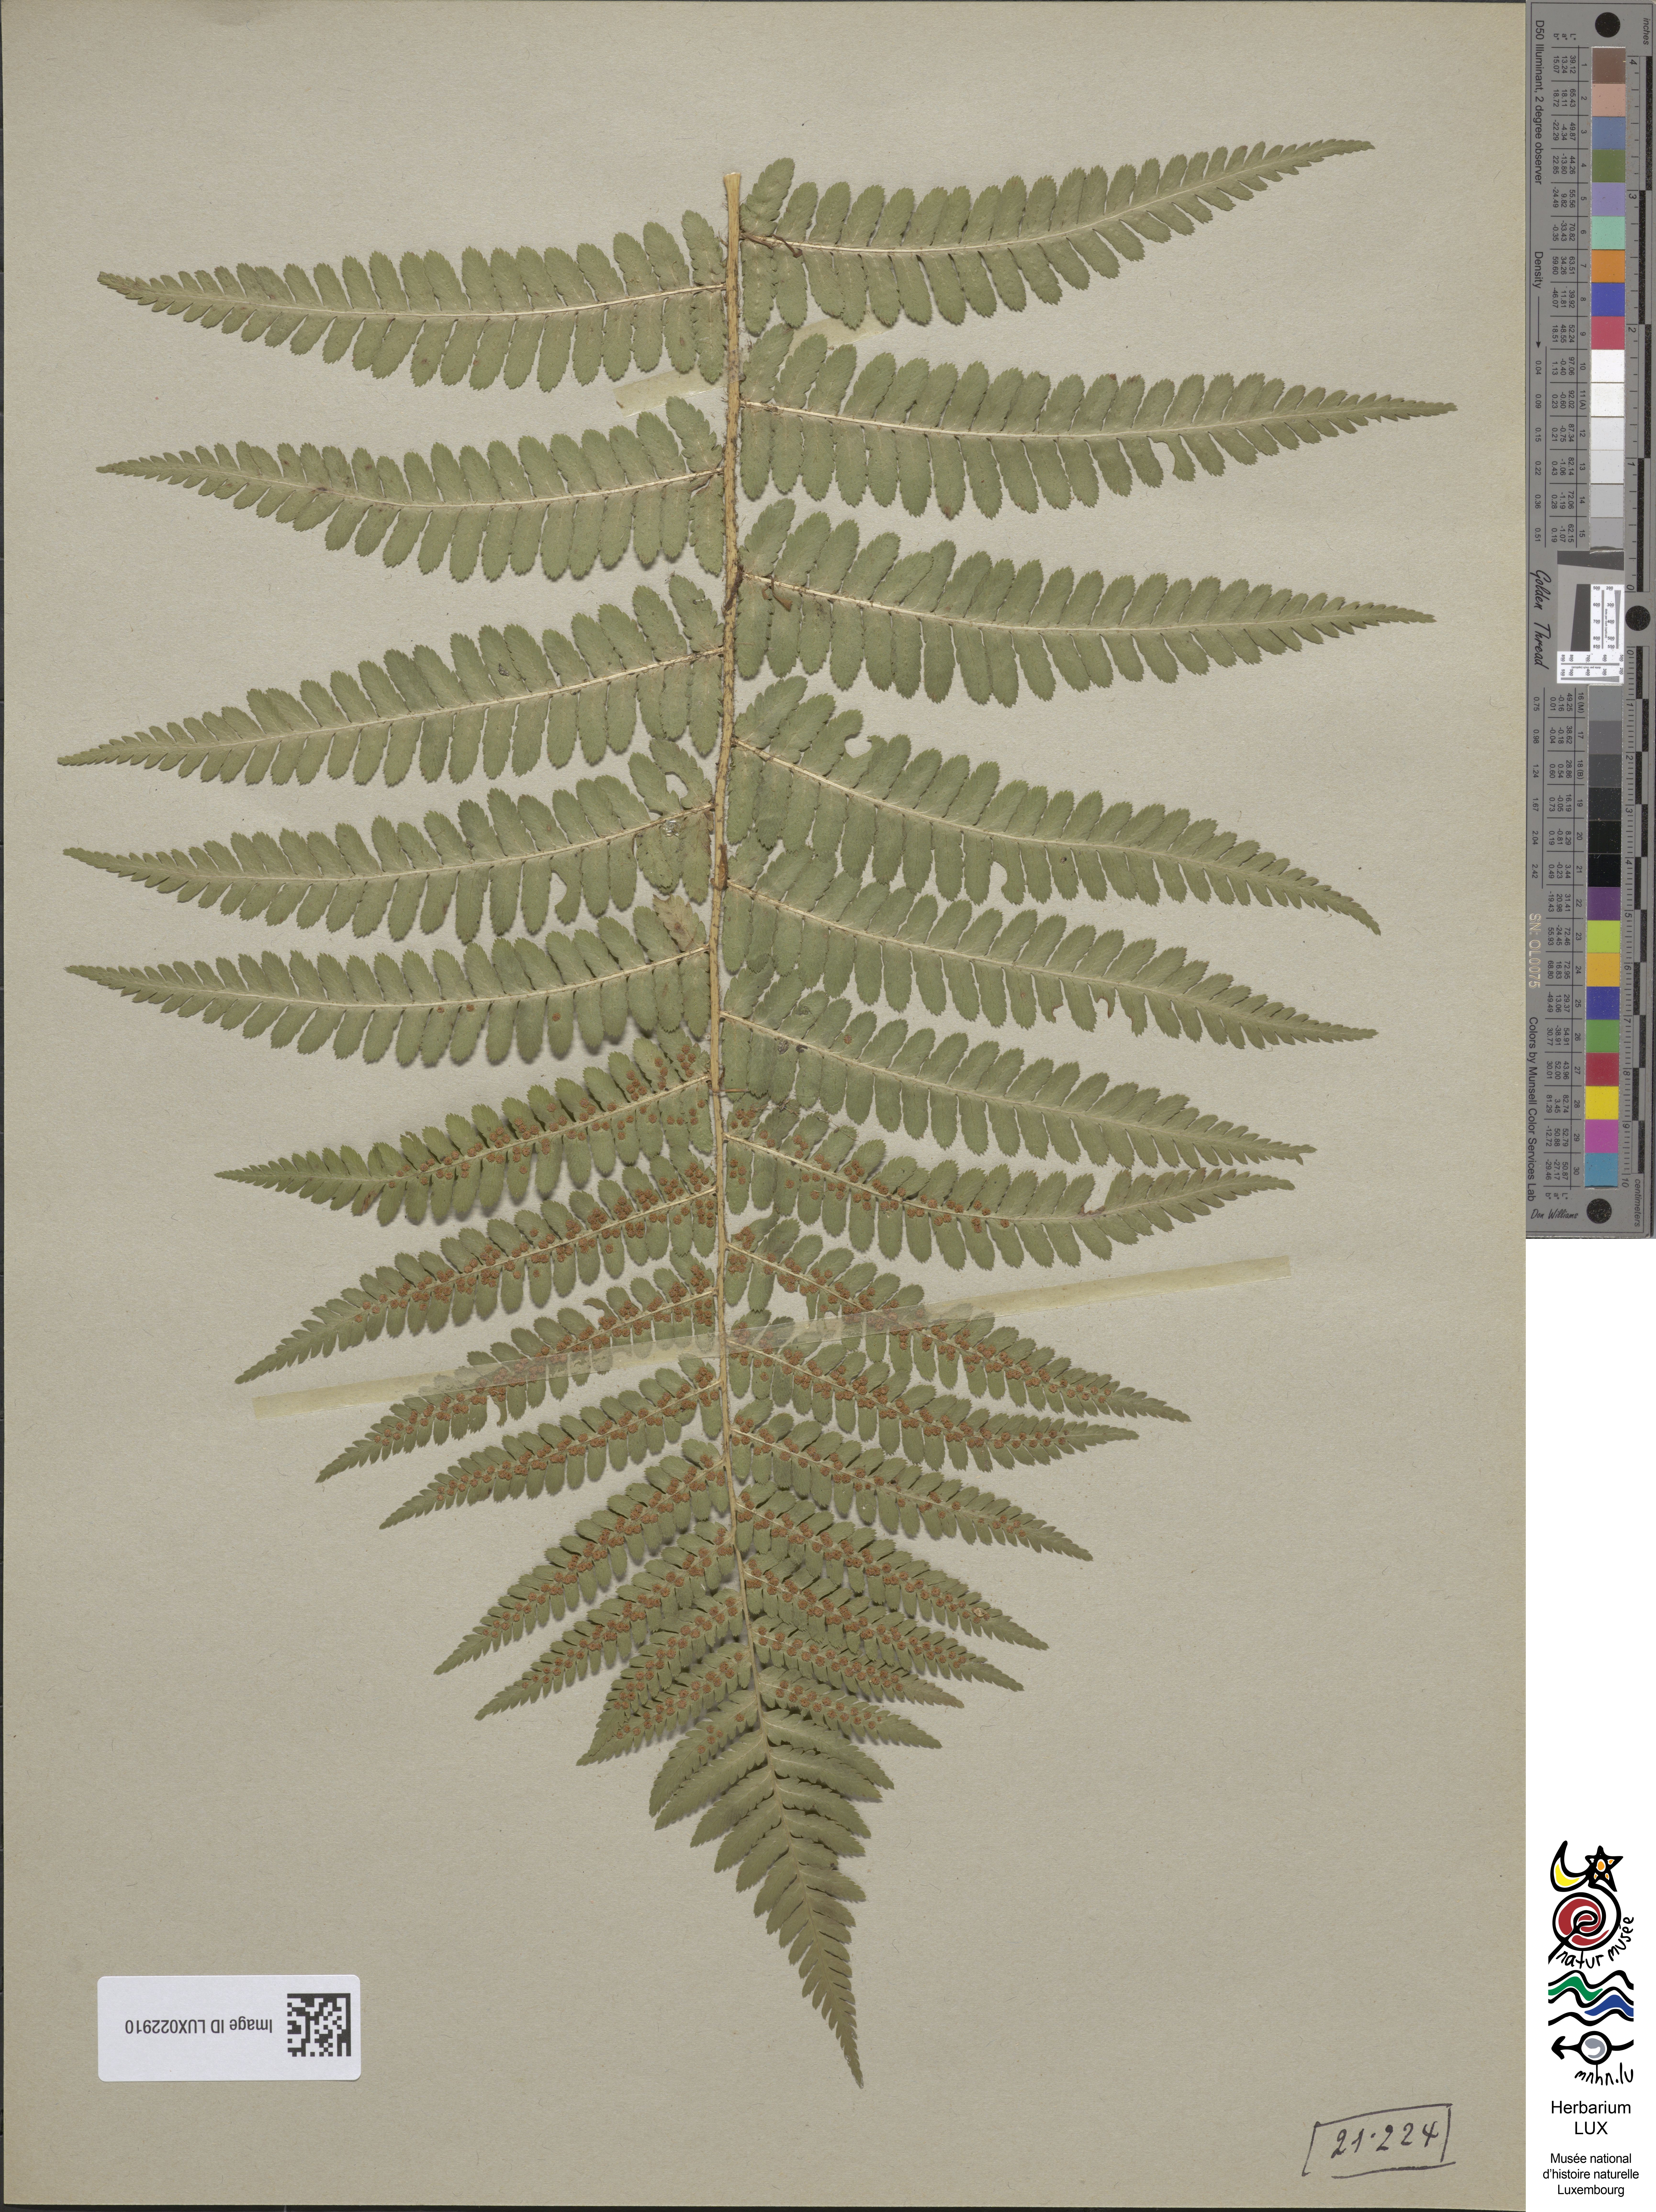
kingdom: Plantae
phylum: Tracheophyta
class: Polypodiopsida
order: Polypodiales
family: Dryopteridaceae
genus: Dryopteris
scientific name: Dryopteris filix-mas
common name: Male fern
